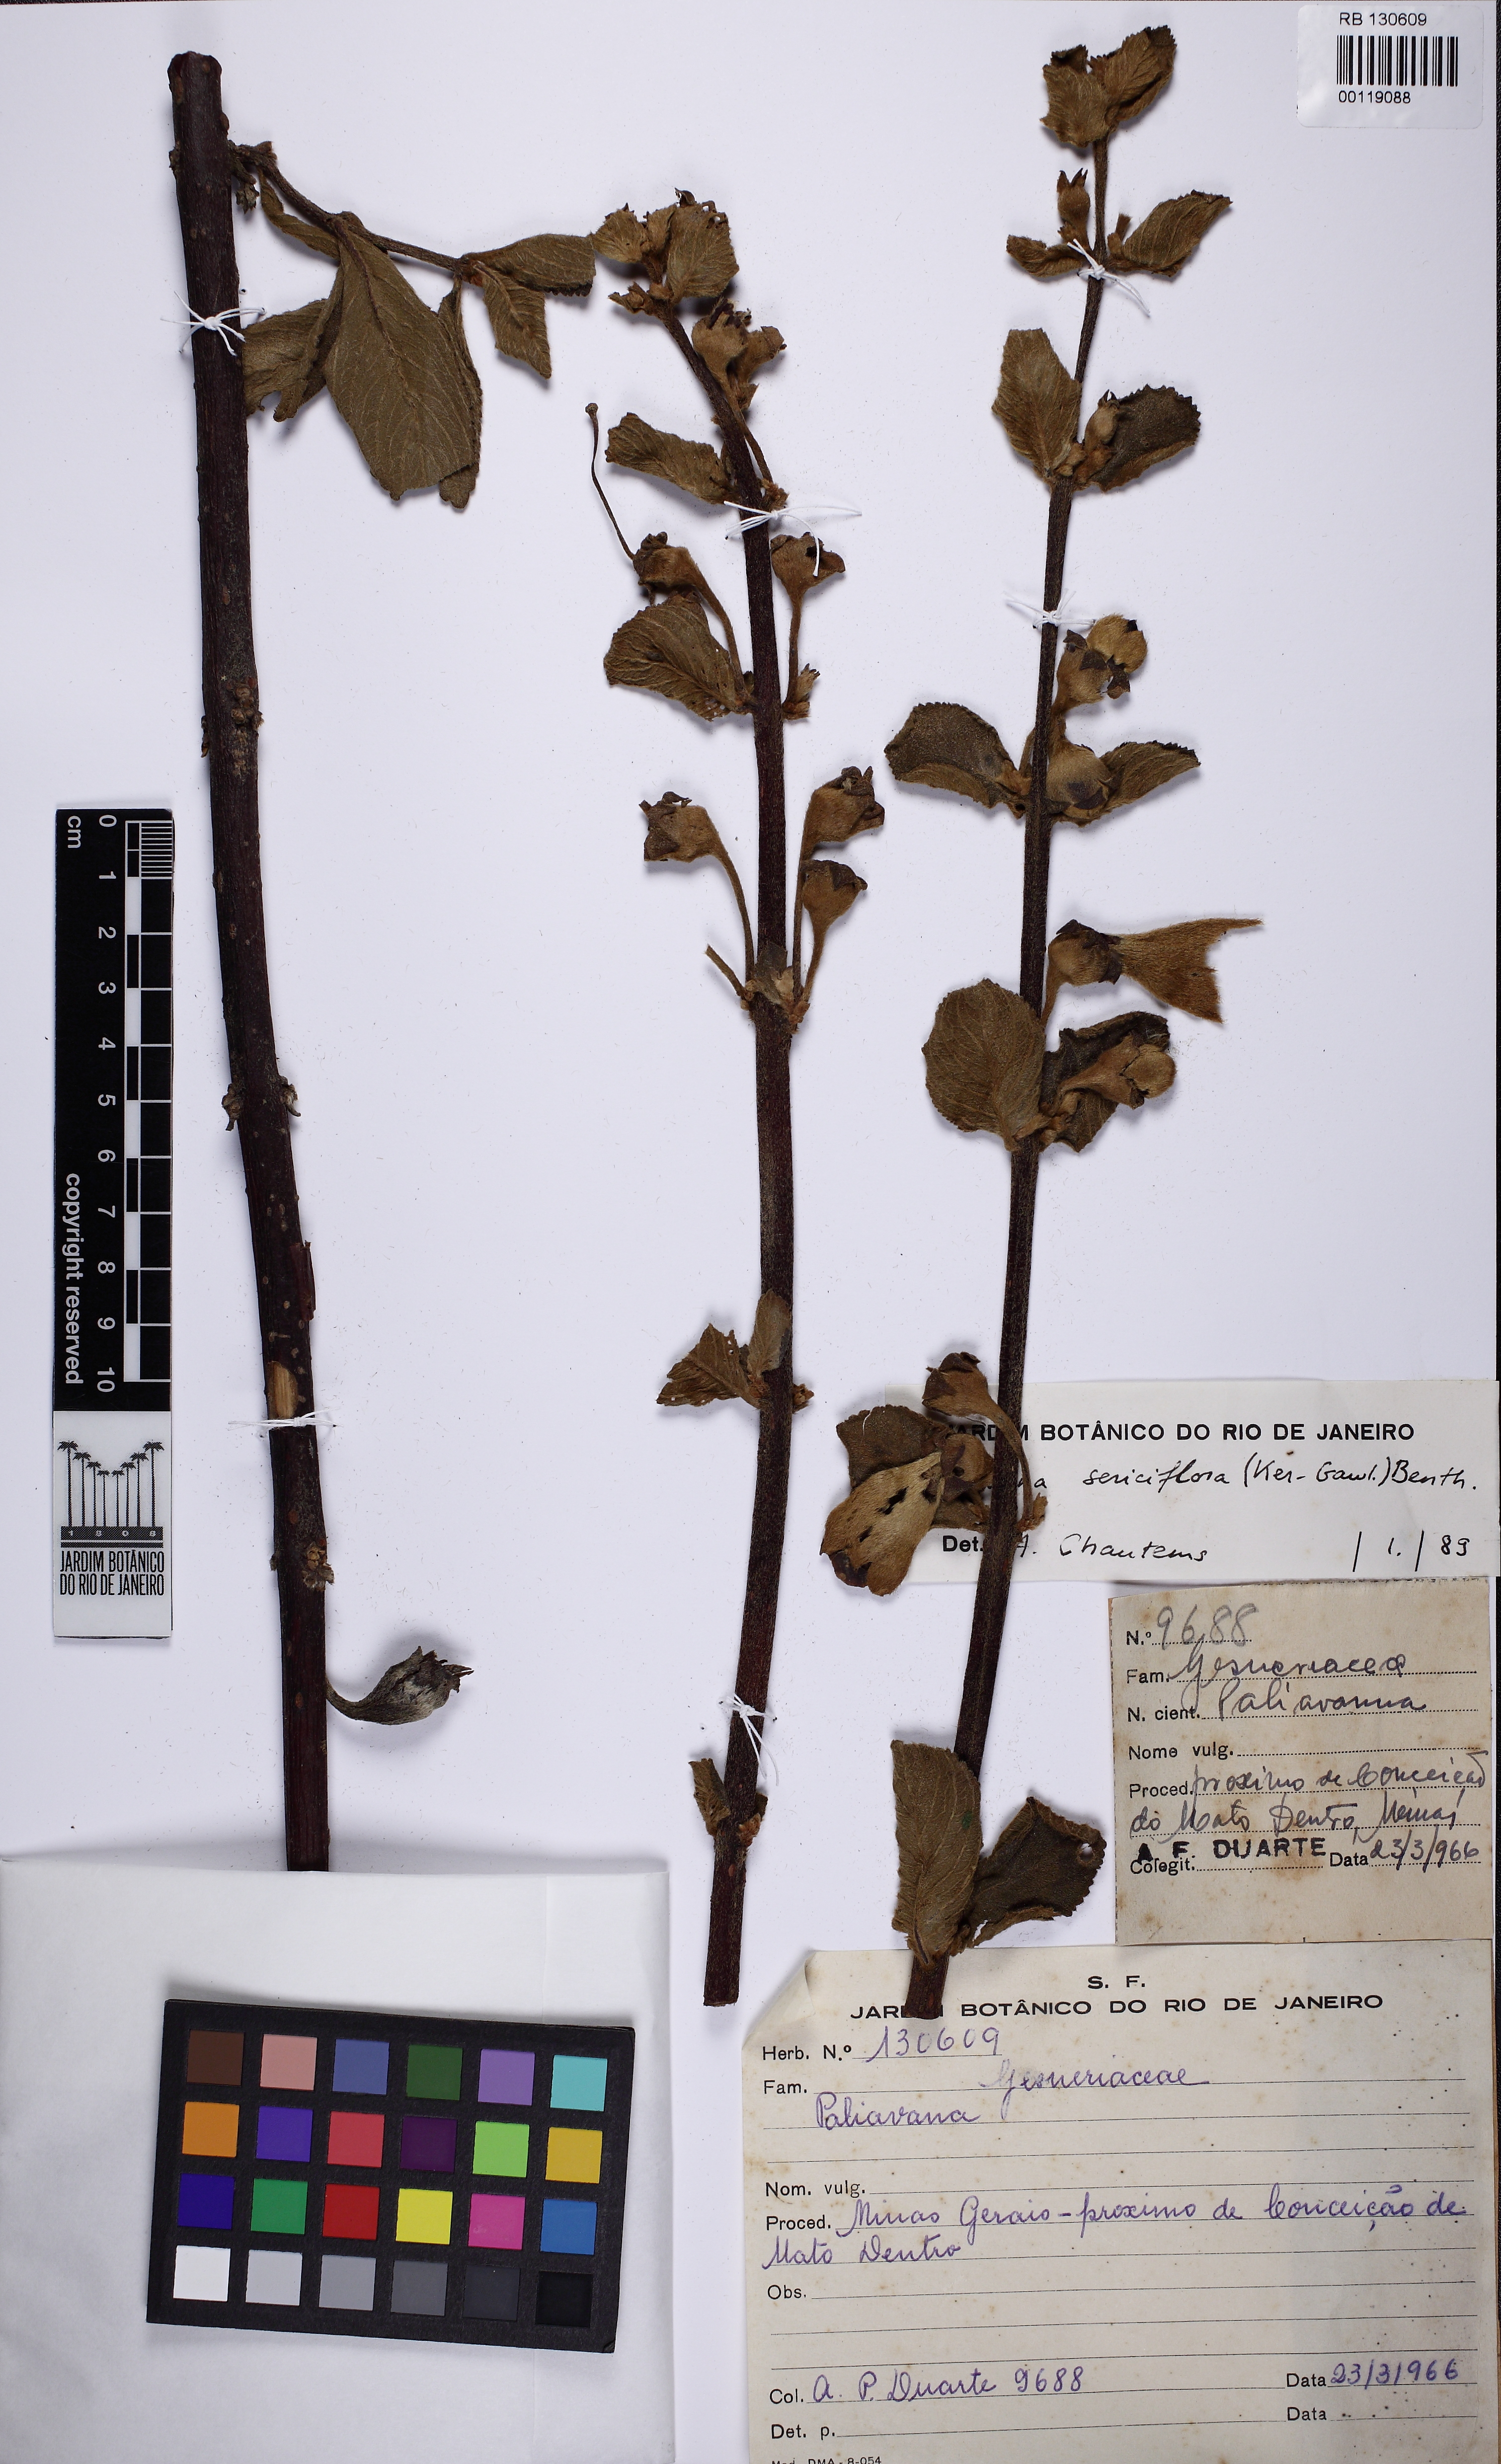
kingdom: Plantae
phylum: Tracheophyta
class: Magnoliopsida
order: Lamiales
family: Gesneriaceae
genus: Paliavana
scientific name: Paliavana sericiflora
